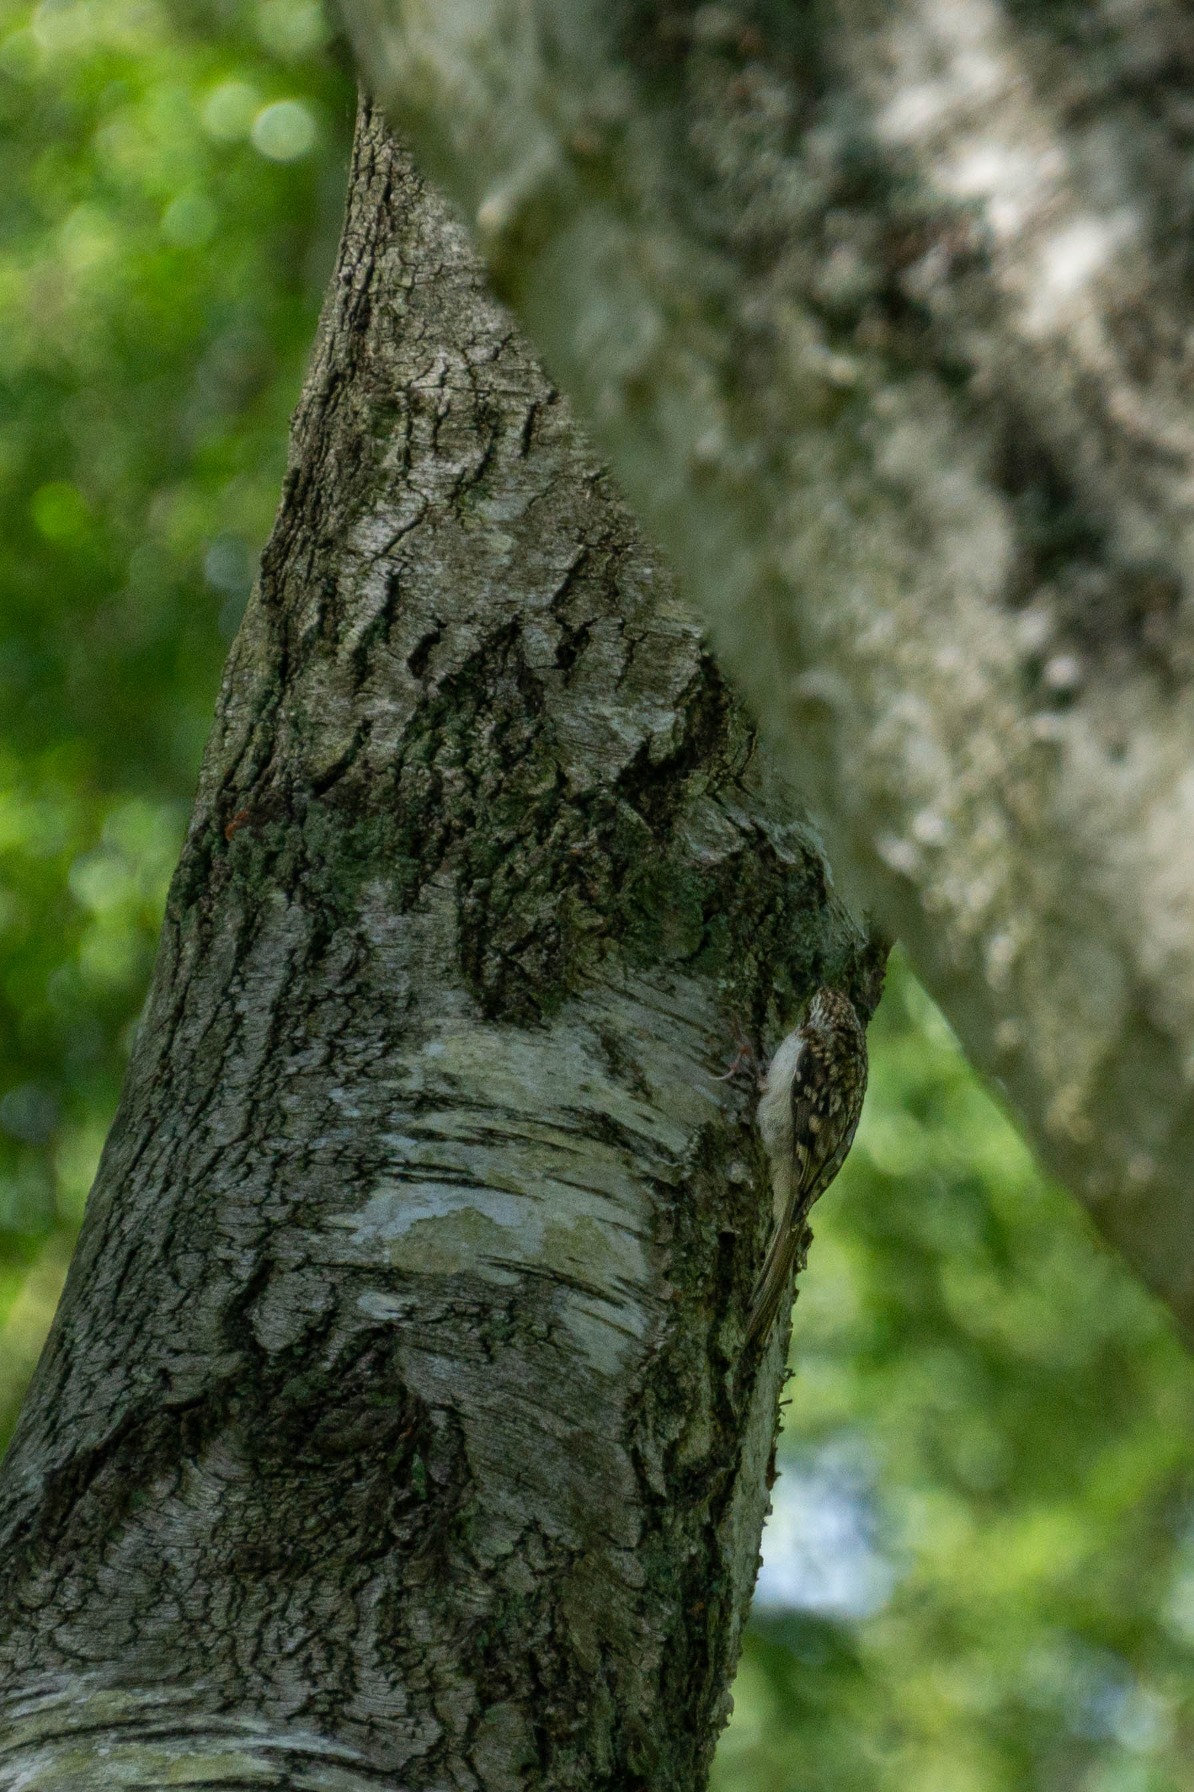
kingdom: Animalia
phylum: Chordata
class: Aves
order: Passeriformes
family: Certhiidae
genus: Certhia
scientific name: Certhia familiaris
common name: Træløber
